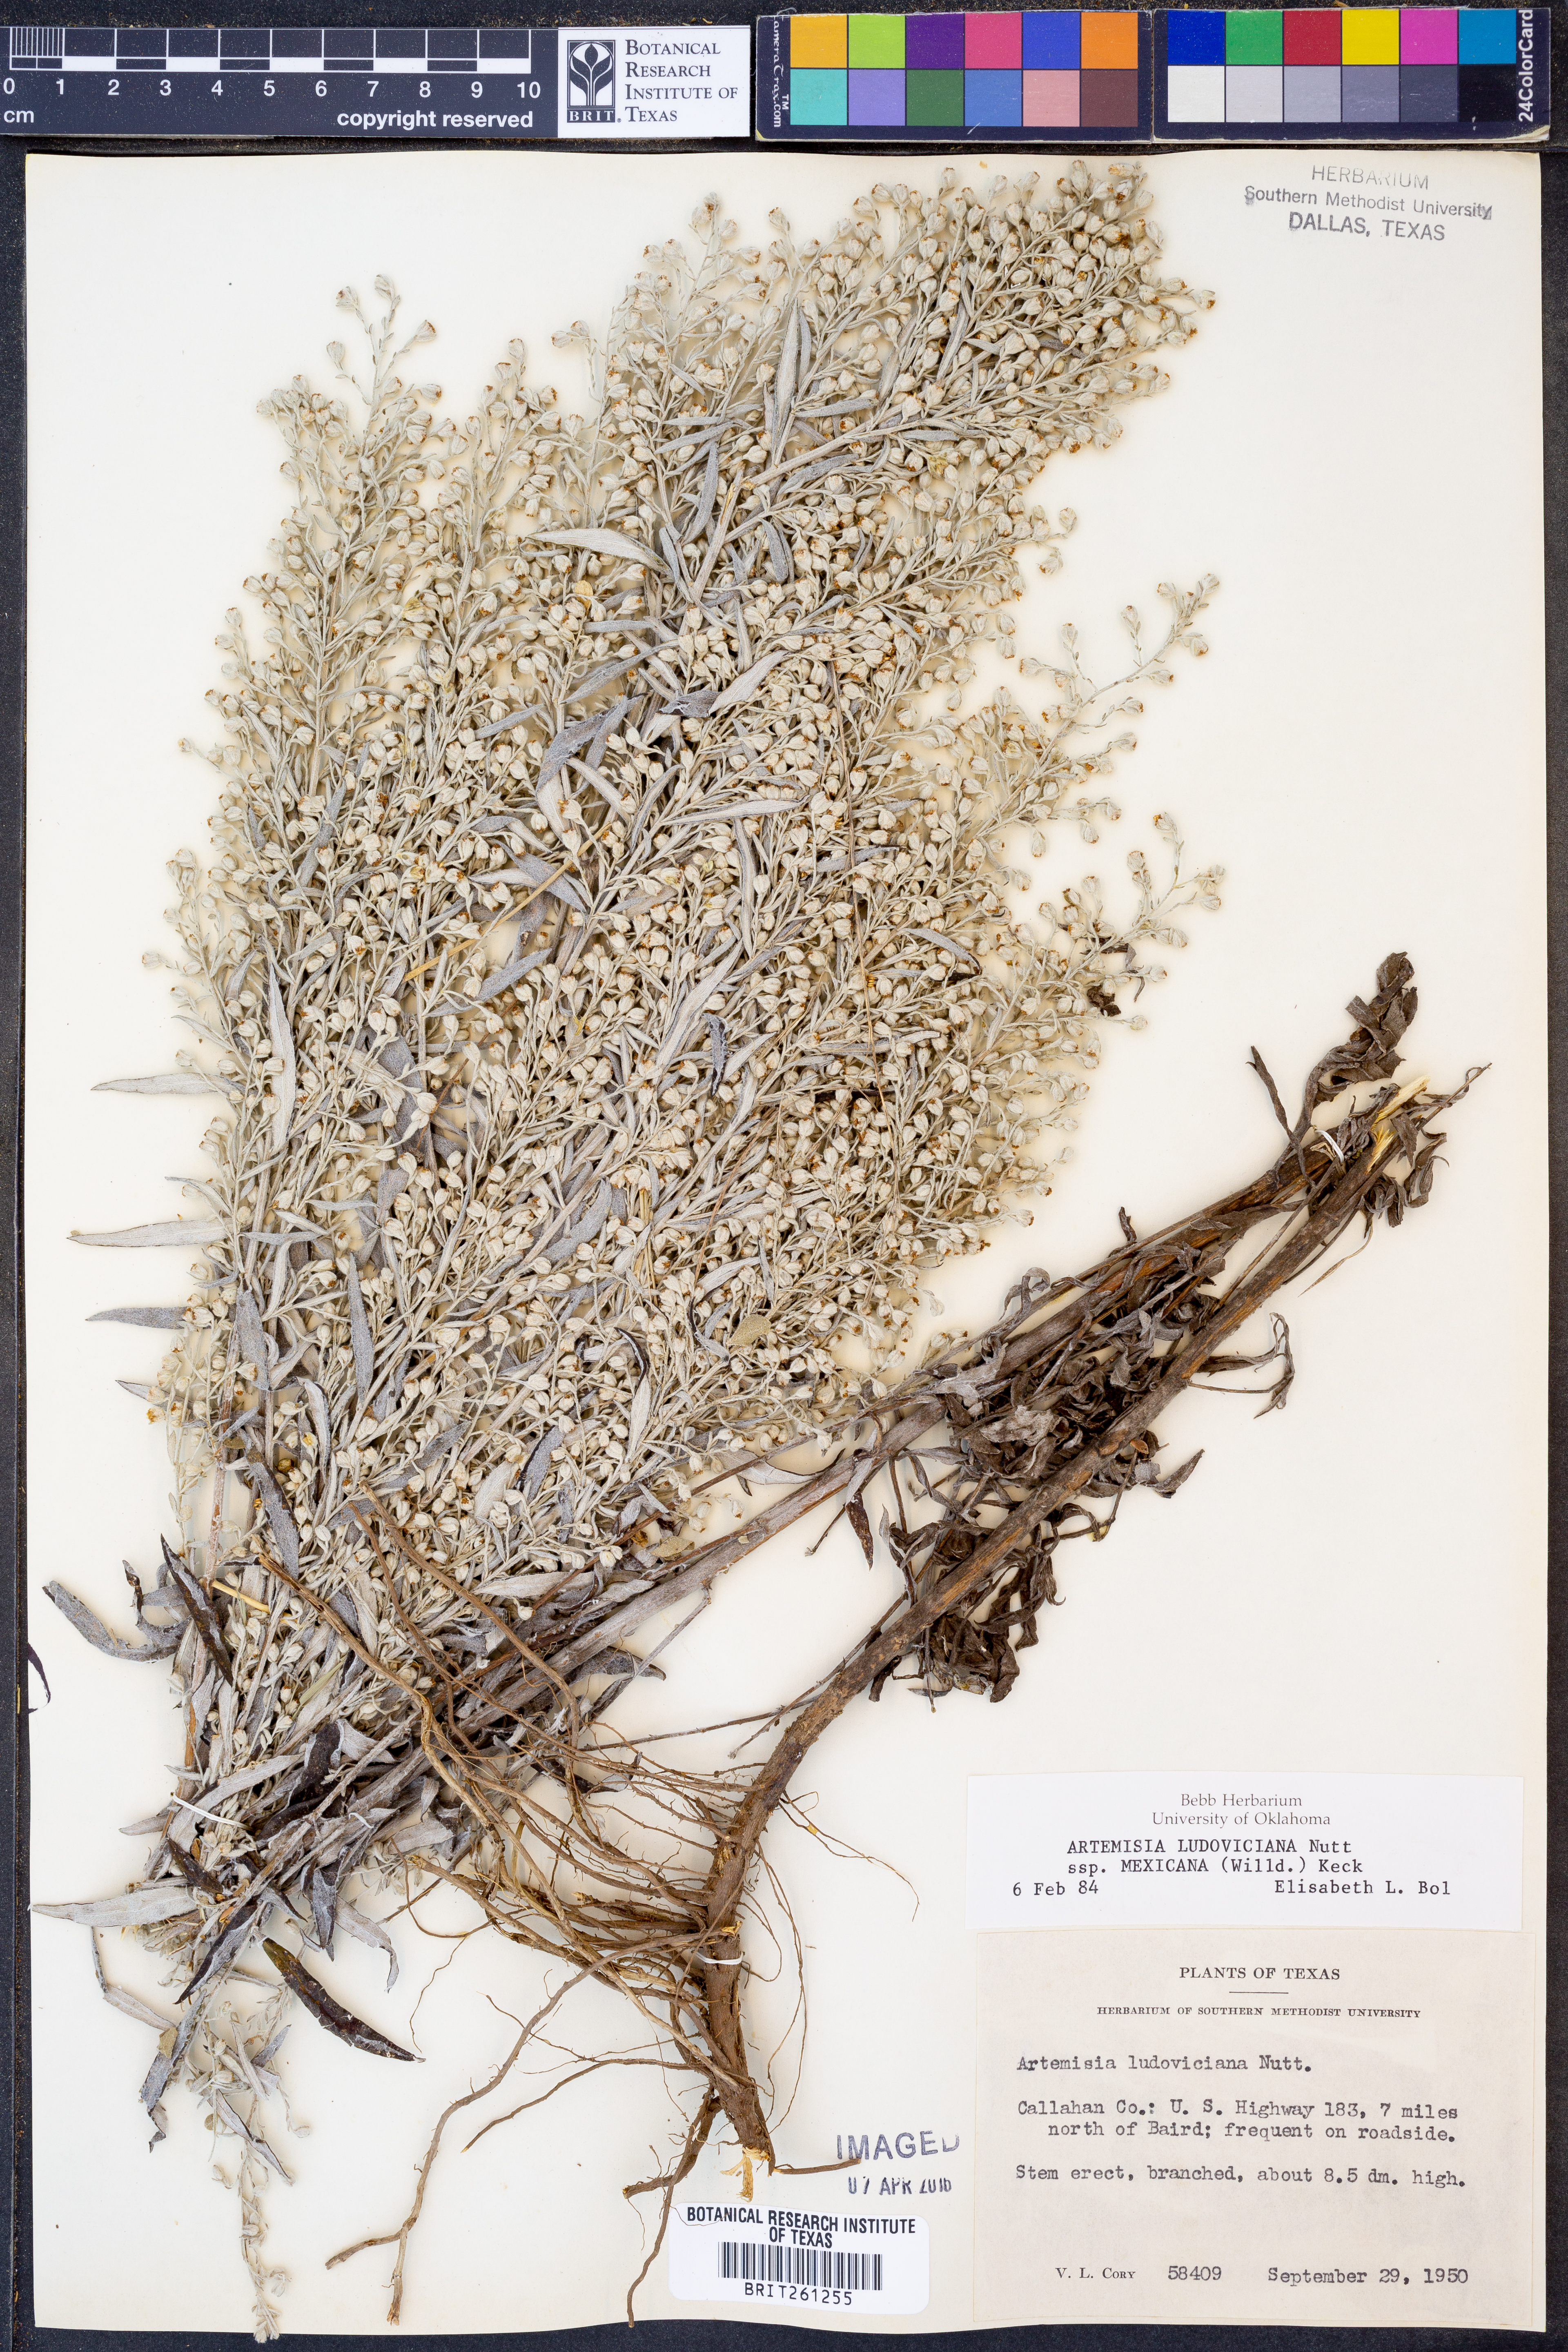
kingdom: Plantae
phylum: Tracheophyta
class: Magnoliopsida
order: Asterales
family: Asteraceae
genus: Artemisia
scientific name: Artemisia ludoviciana
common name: Western mugwort
